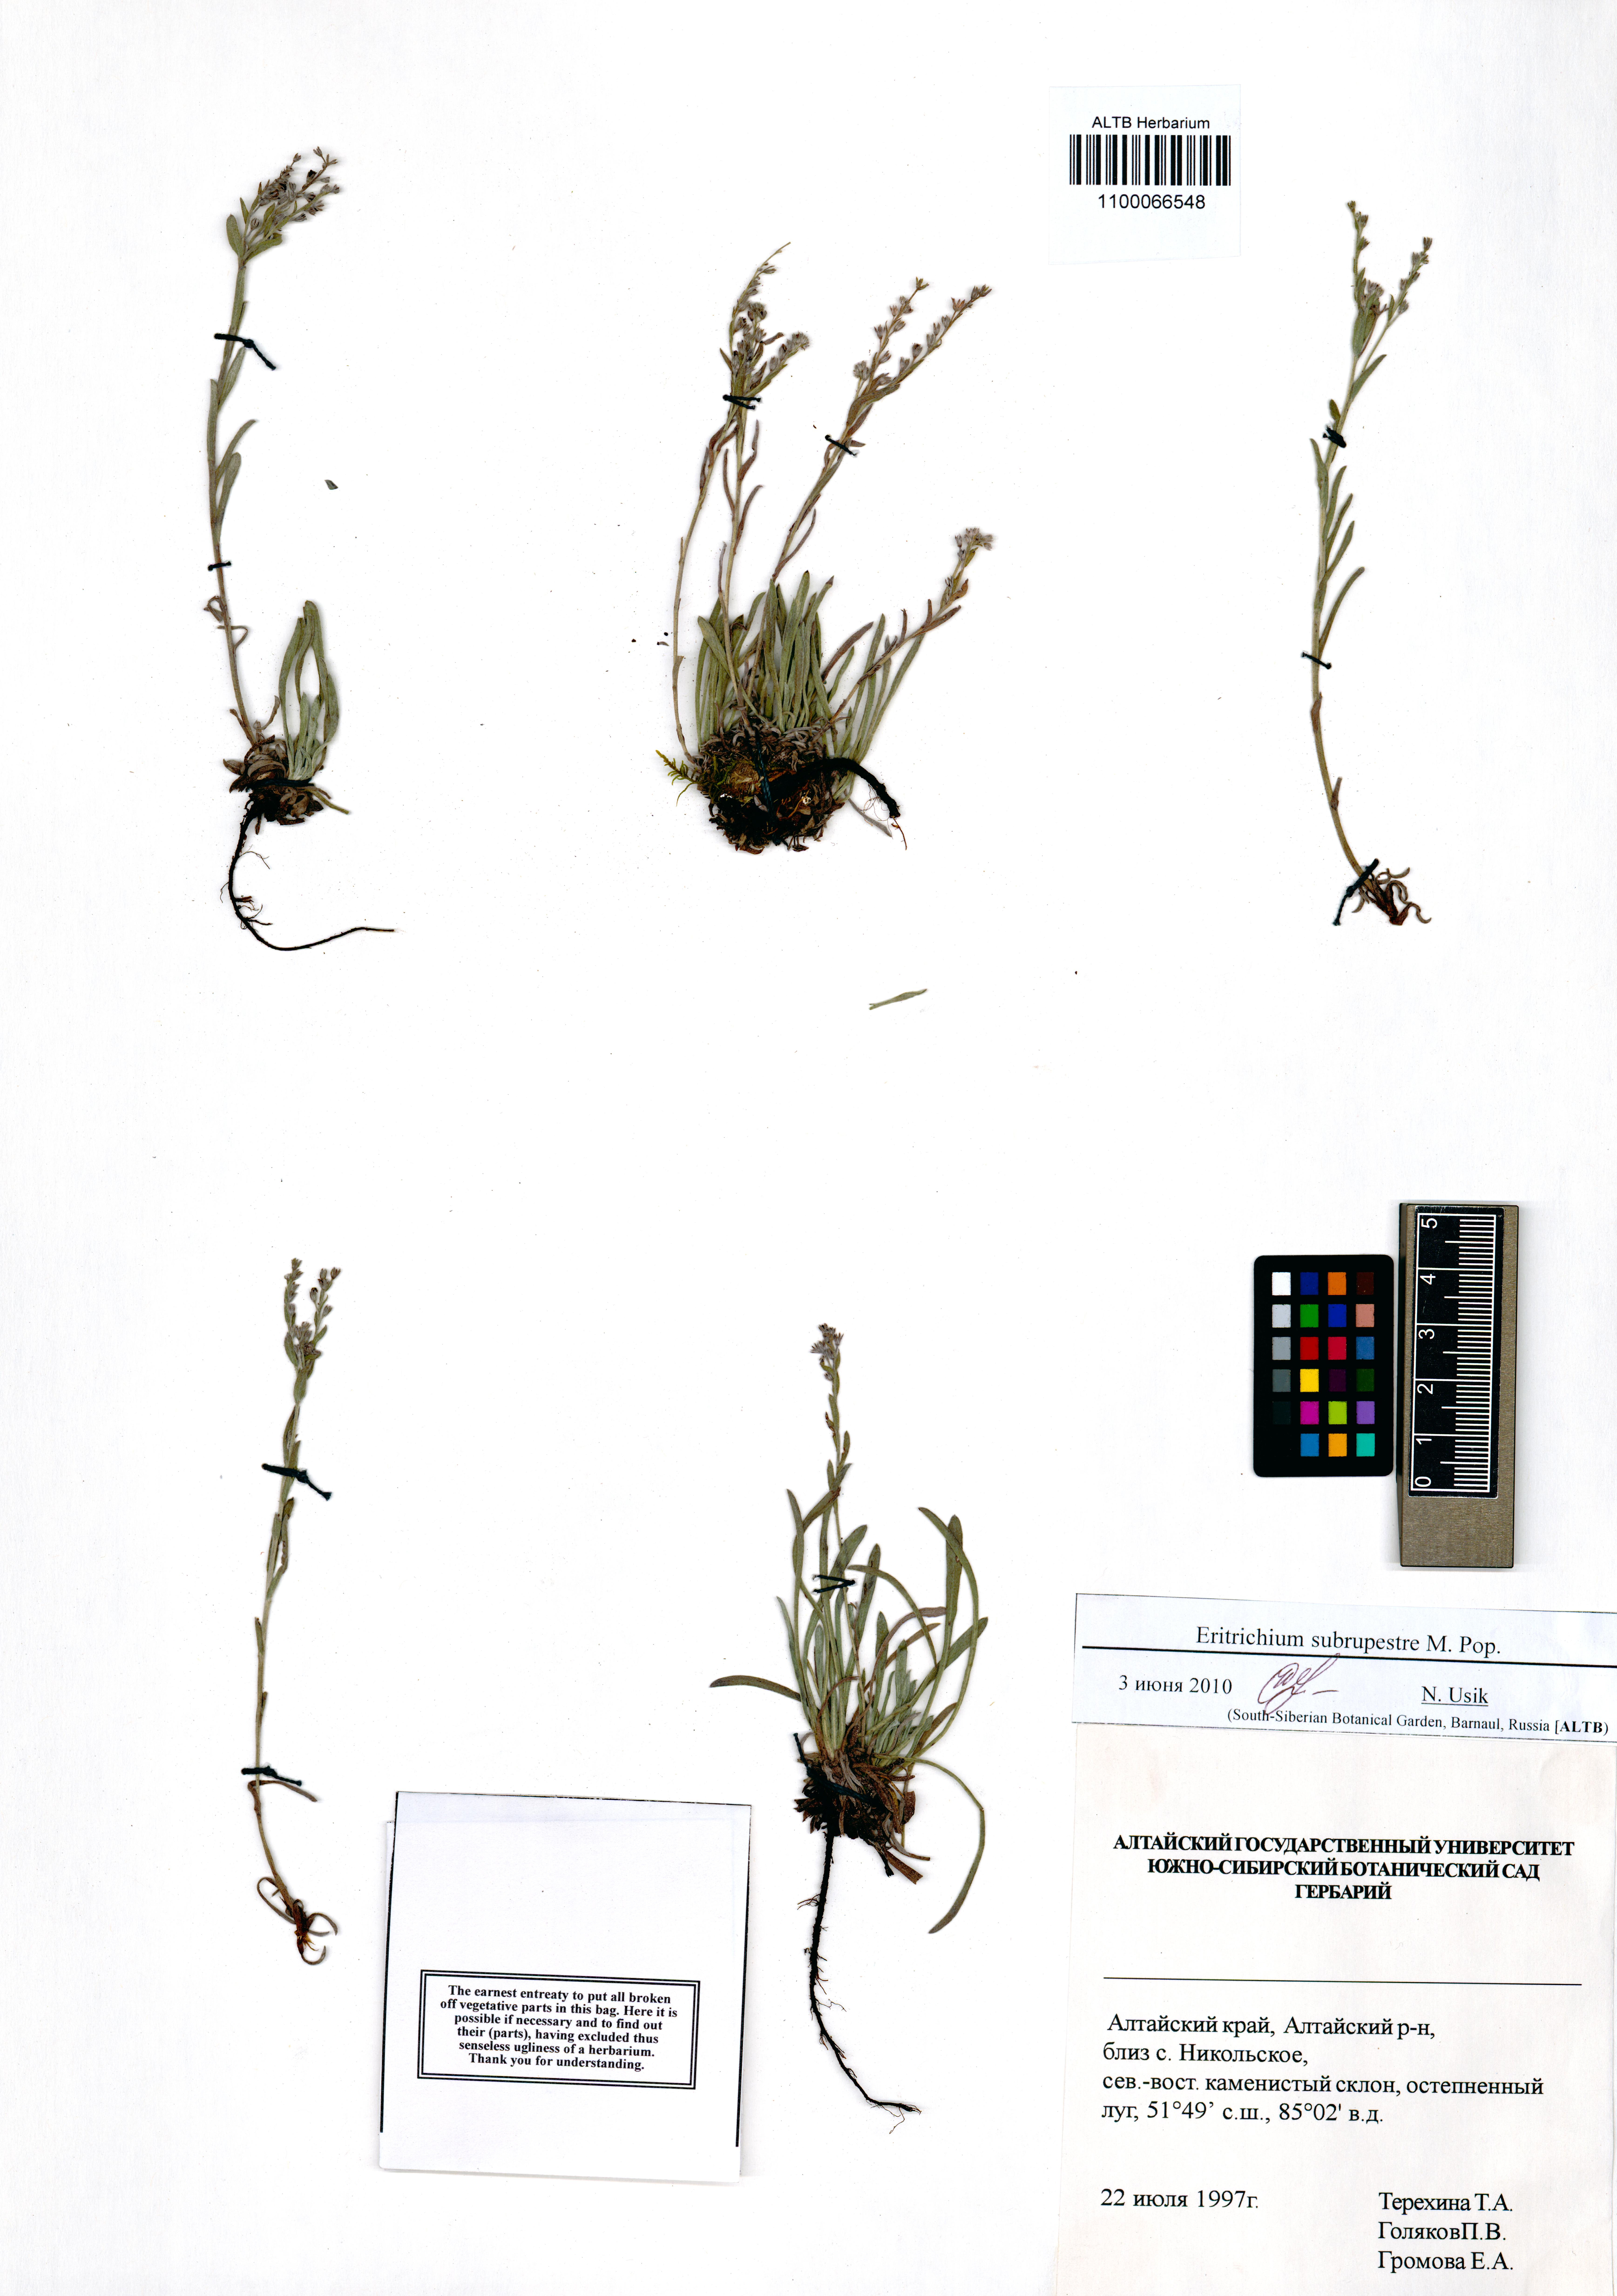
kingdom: Plantae
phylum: Tracheophyta
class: Magnoliopsida
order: Boraginales
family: Boraginaceae
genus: Eritrichium
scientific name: Eritrichium pauciflorum
